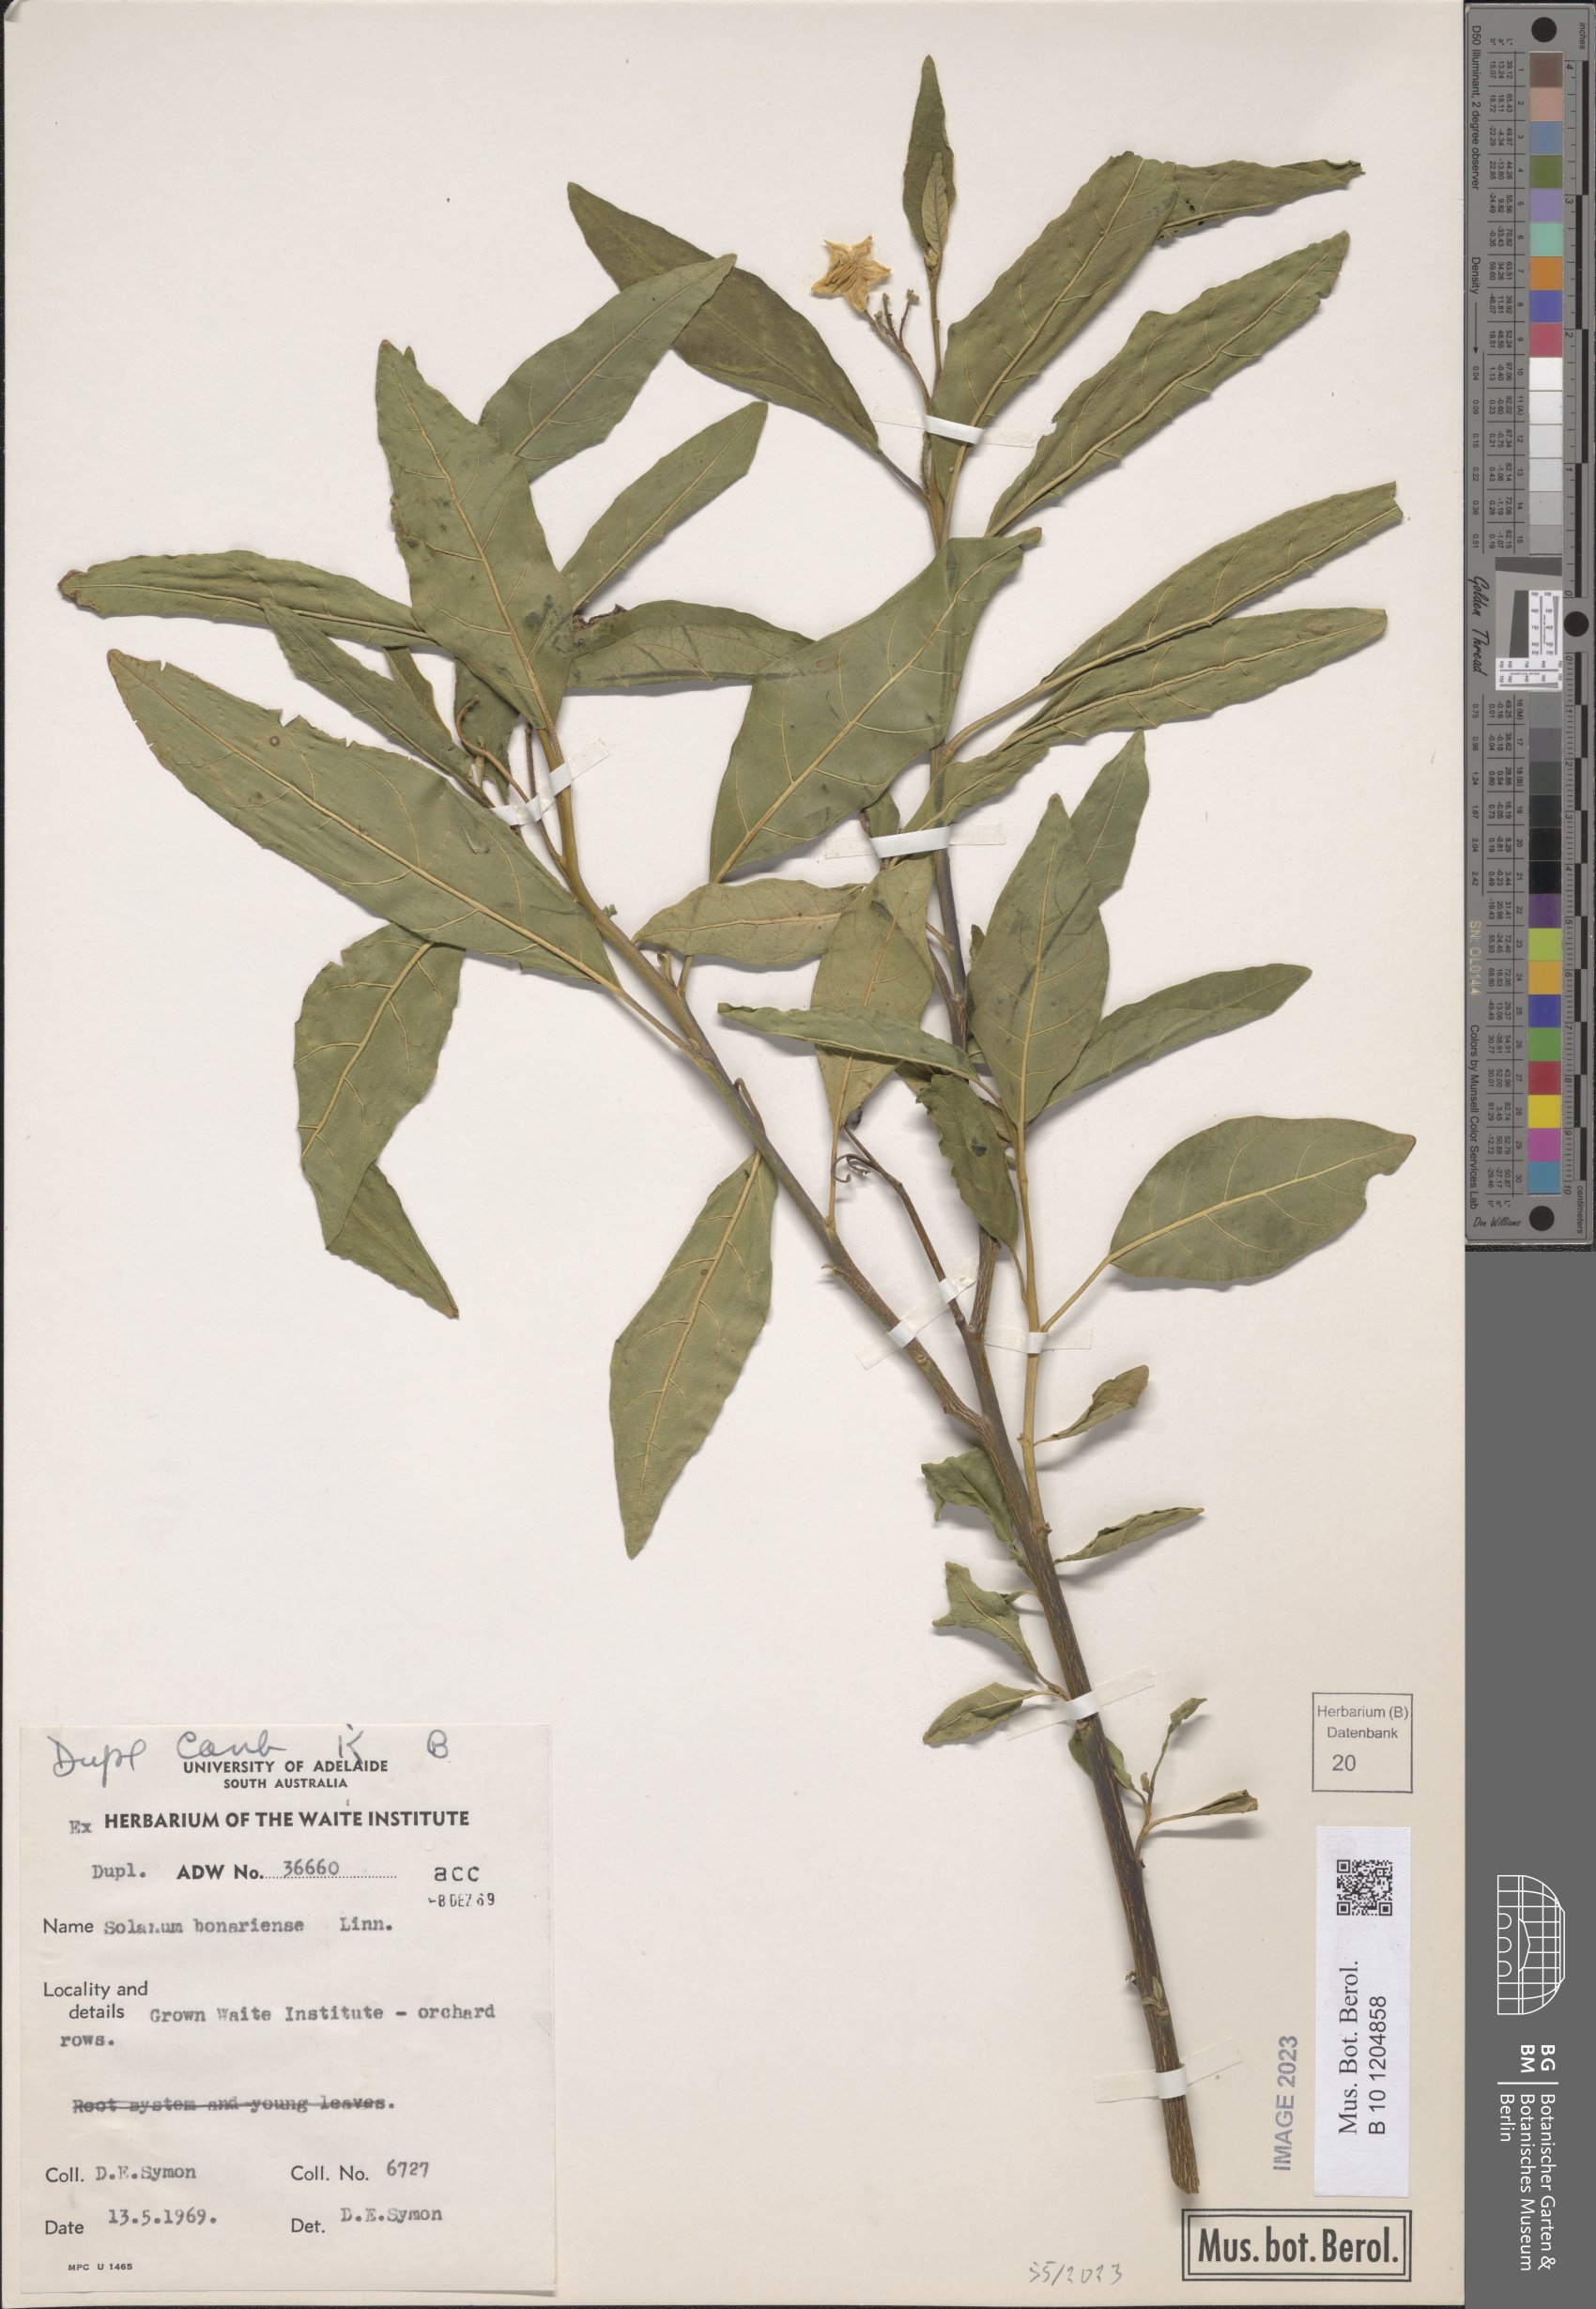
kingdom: Plantae
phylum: Tracheophyta
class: Magnoliopsida
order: Solanales
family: Solanaceae
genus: Solanum
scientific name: Solanum bonariense
